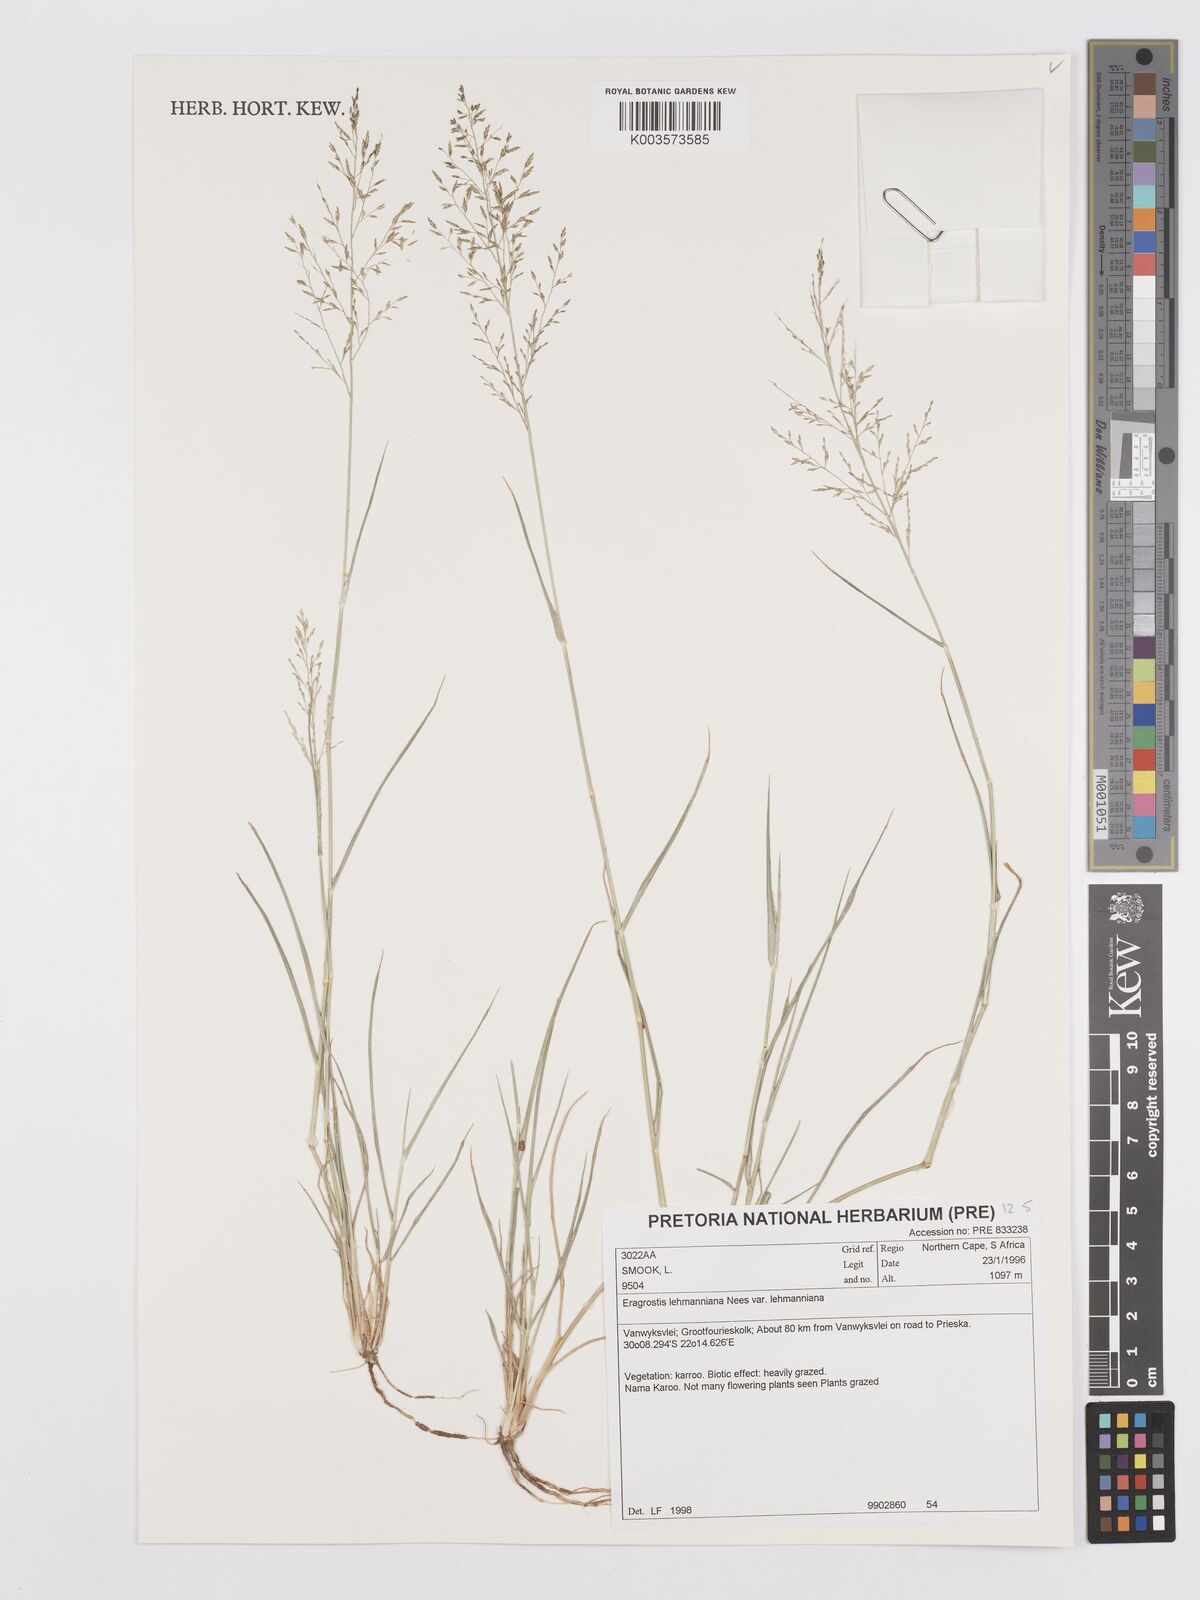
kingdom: Plantae
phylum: Tracheophyta
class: Liliopsida
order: Poales
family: Poaceae
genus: Eragrostis
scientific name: Eragrostis lehmanniana
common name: Lehmann lovegrass
